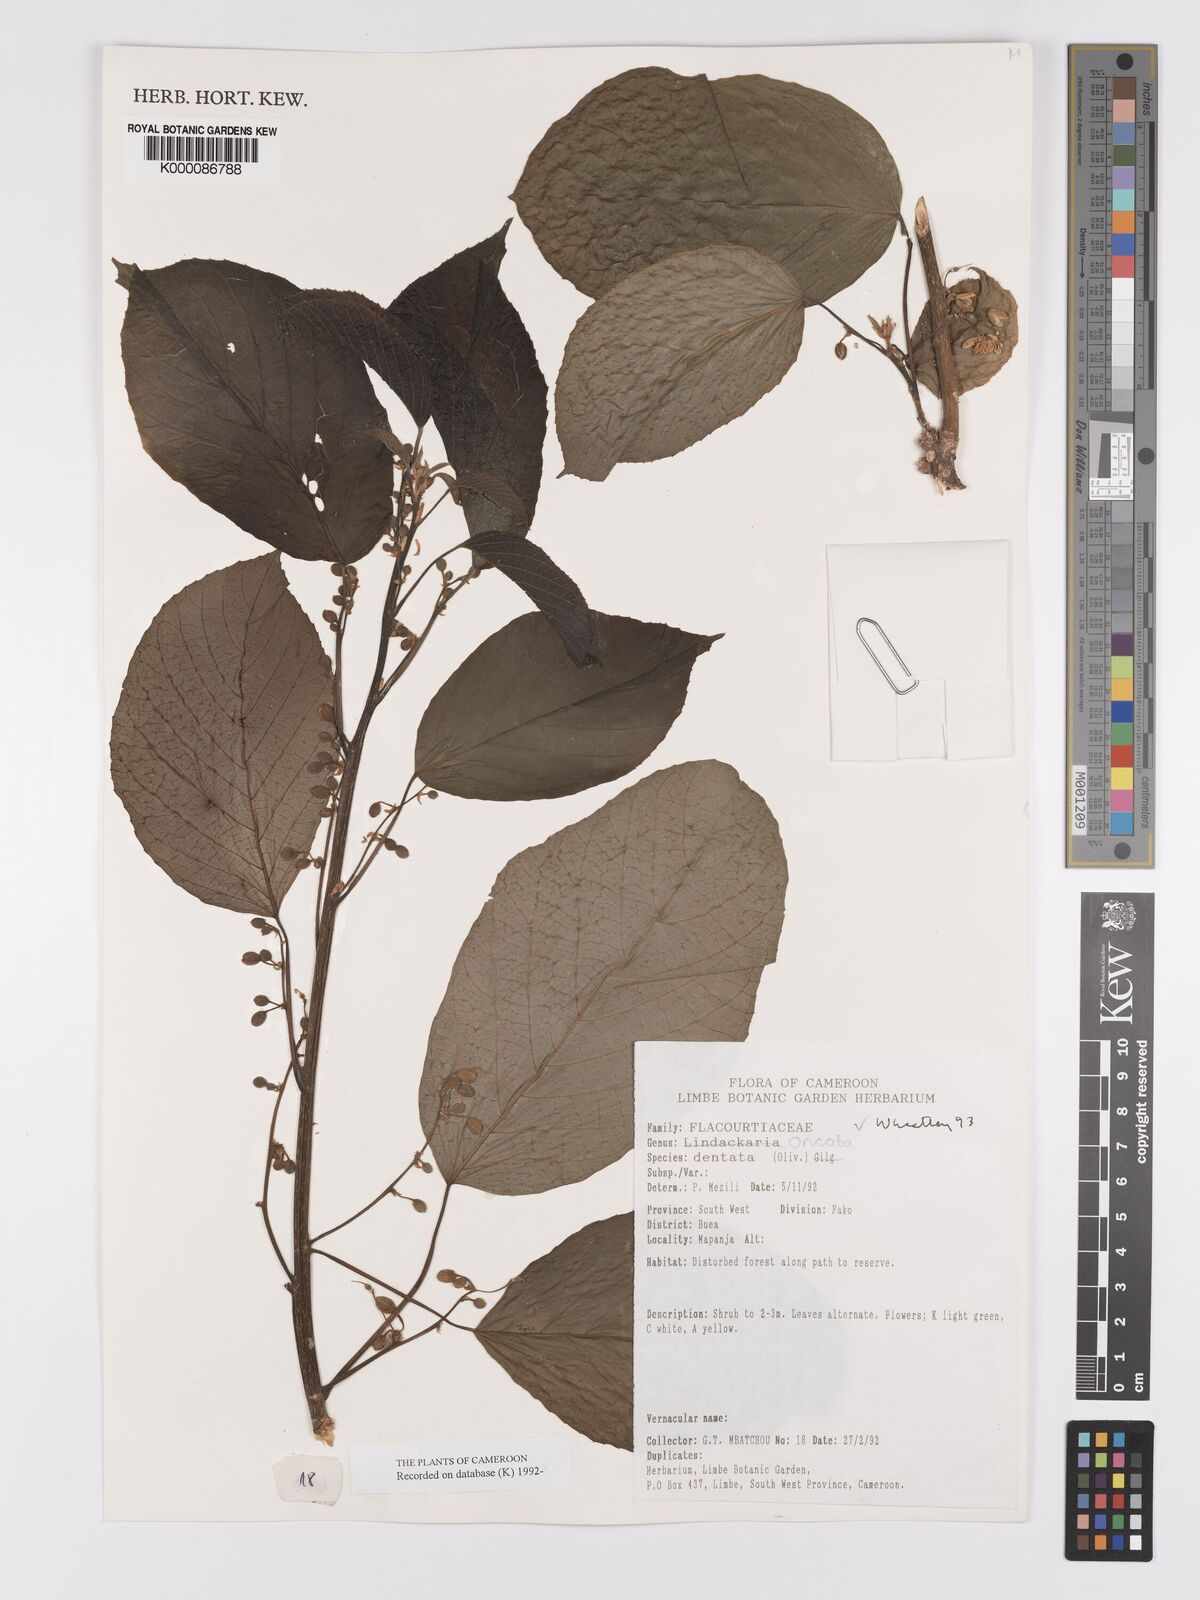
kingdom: Plantae
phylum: Tracheophyta
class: Magnoliopsida
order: Malpighiales
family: Achariaceae
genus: Lindackeria
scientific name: Lindackeria dentata
